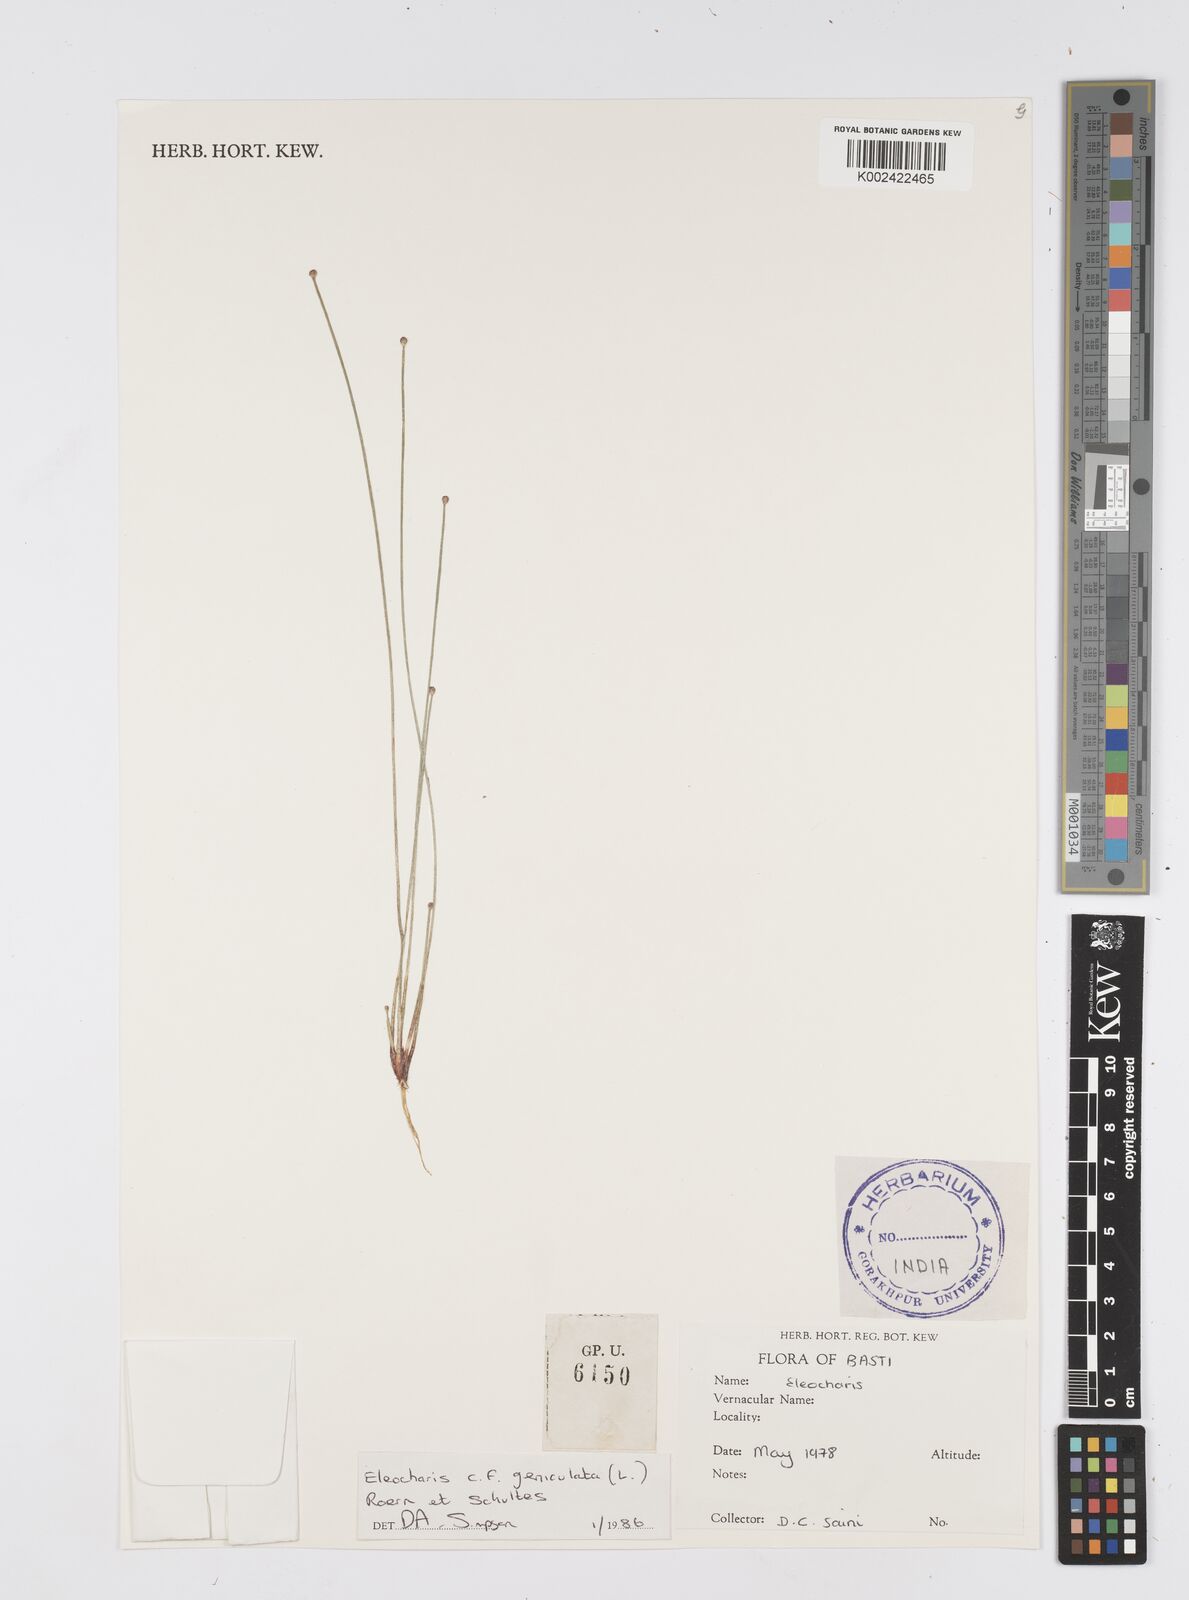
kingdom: Plantae
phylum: Tracheophyta
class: Liliopsida
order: Poales
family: Cyperaceae
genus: Eleocharis
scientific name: Eleocharis geniculata
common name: Canada spikesedge
